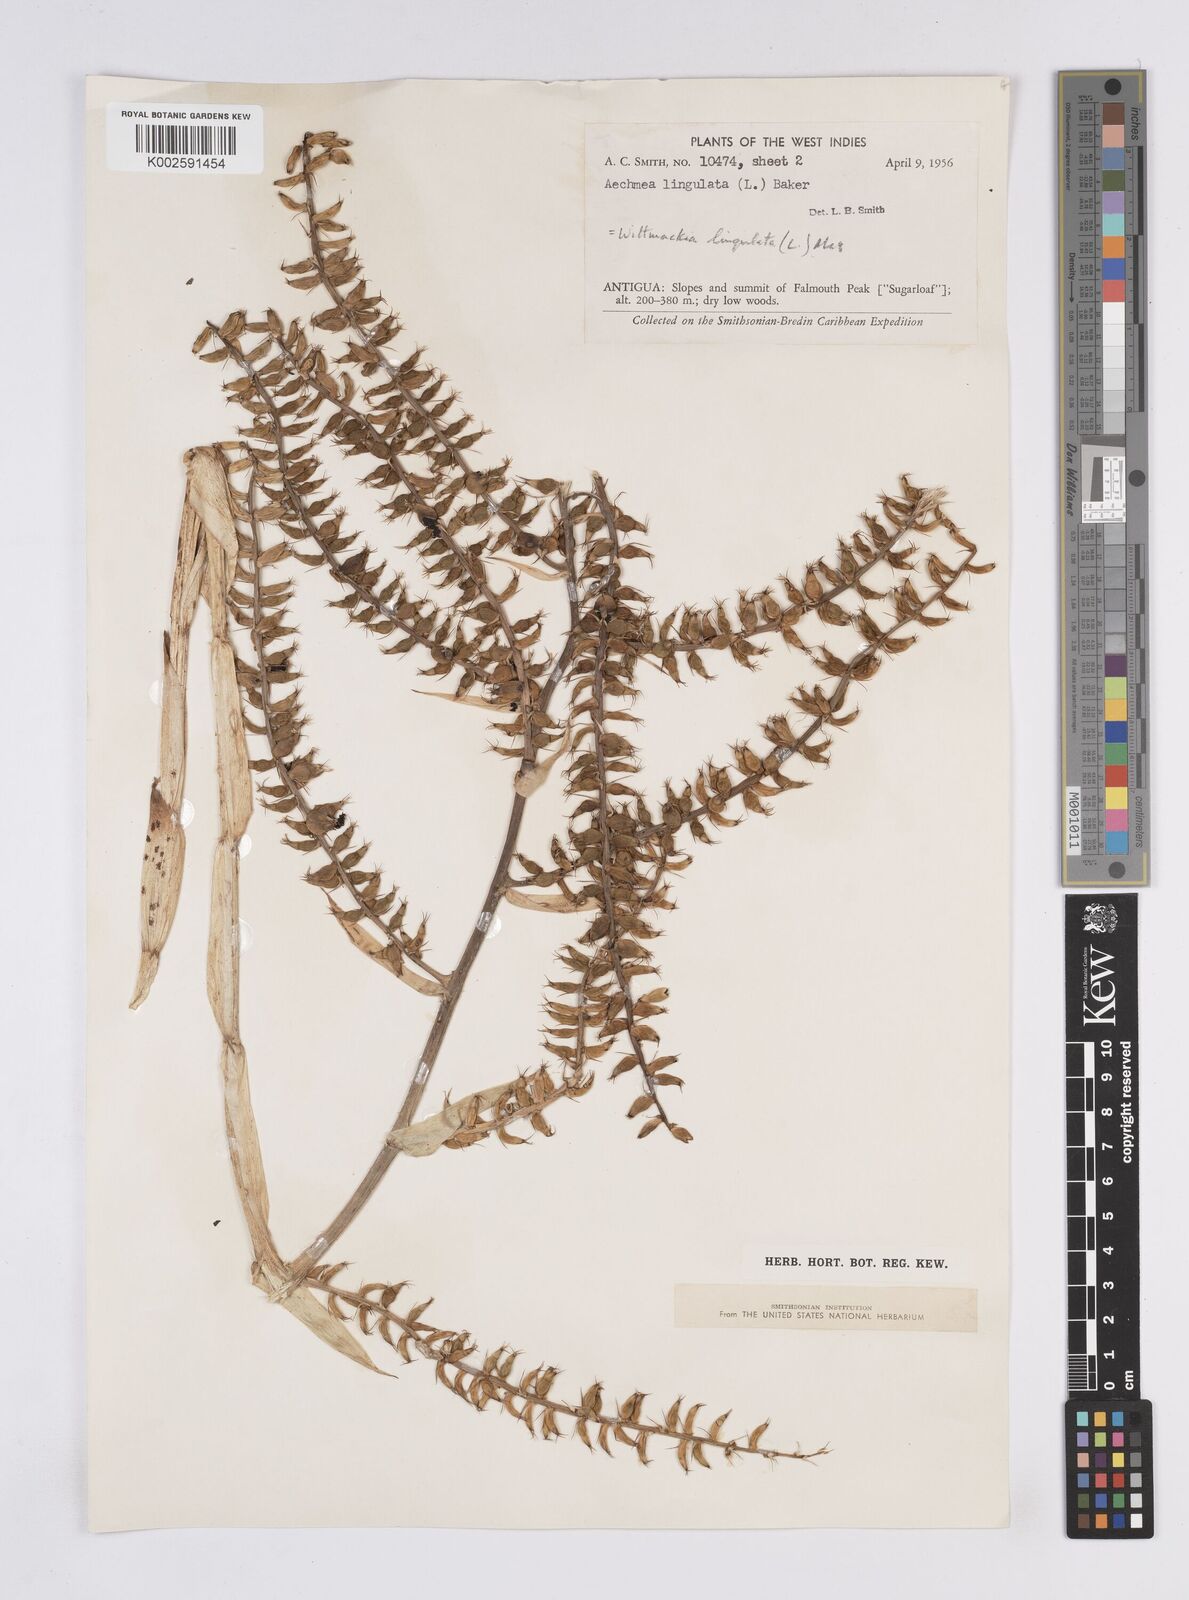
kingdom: Plantae
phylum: Tracheophyta
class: Liliopsida
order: Poales
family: Bromeliaceae
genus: Wittmackia
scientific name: Wittmackia lingulata
